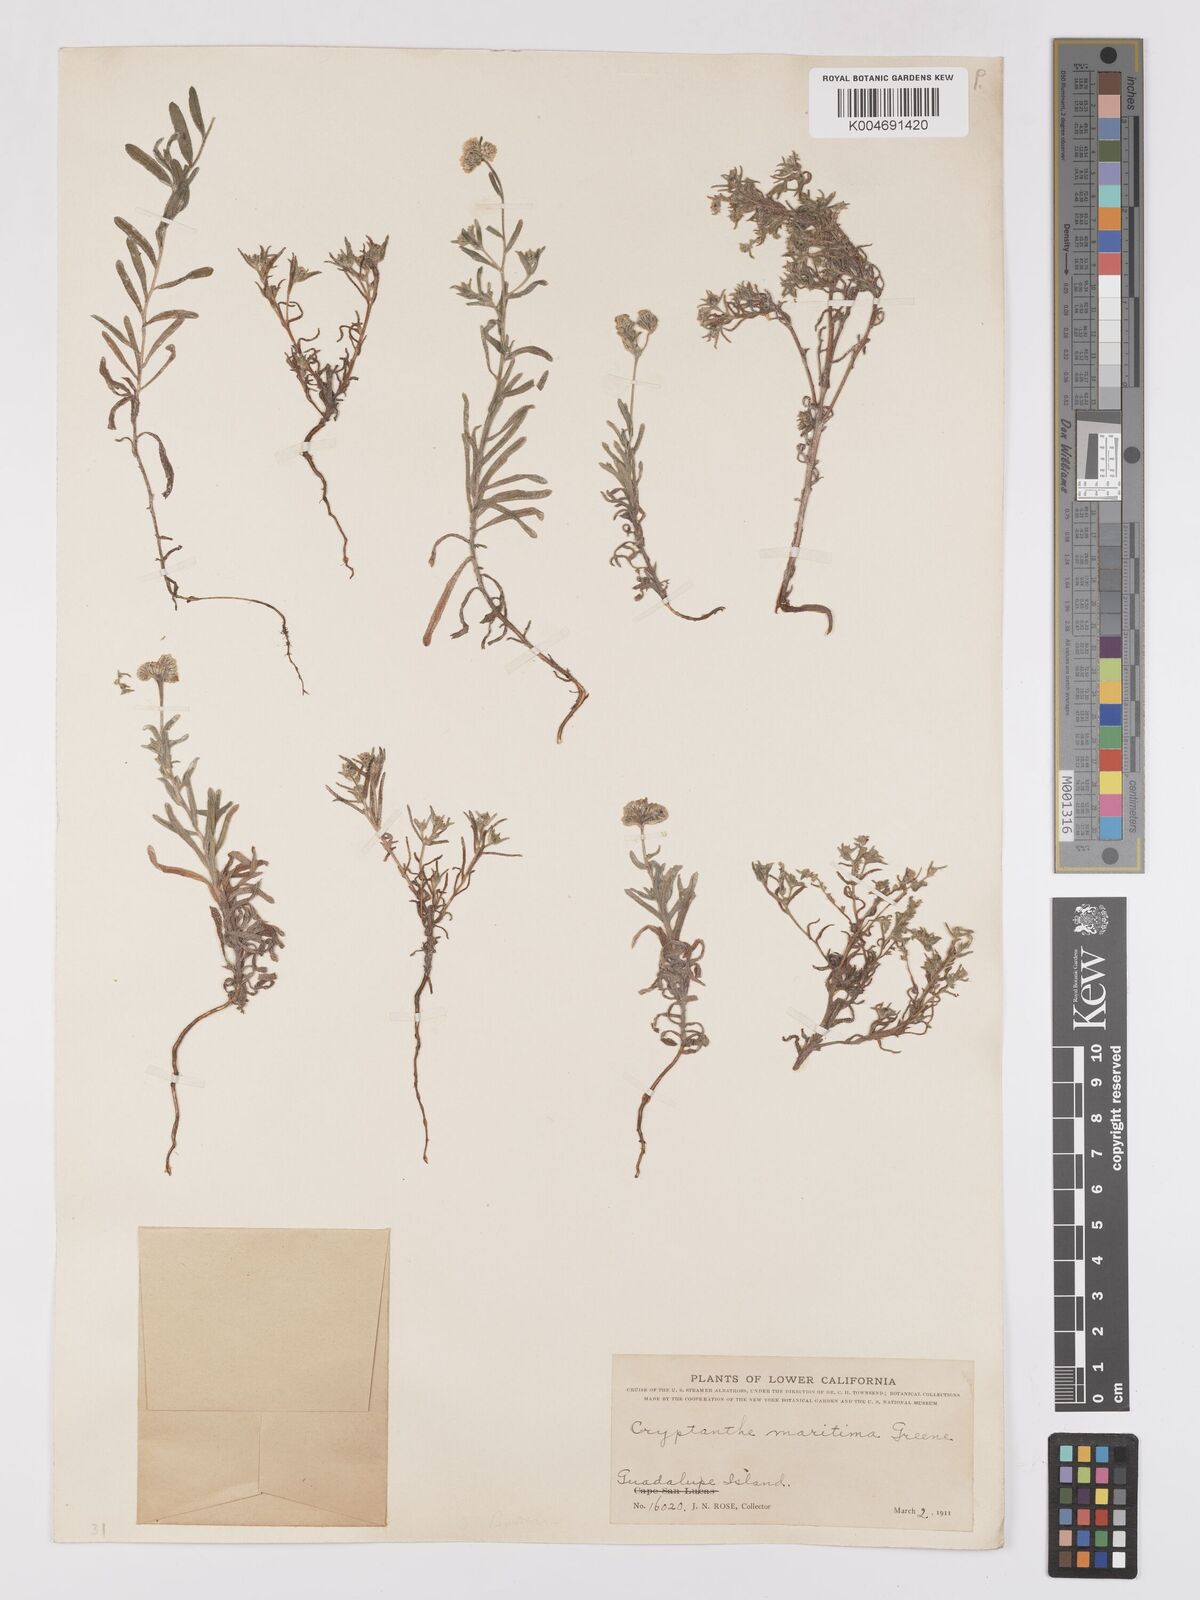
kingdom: Plantae
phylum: Tracheophyta
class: Magnoliopsida
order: Boraginales
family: Boraginaceae
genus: Cryptantha
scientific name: Cryptantha maritima
